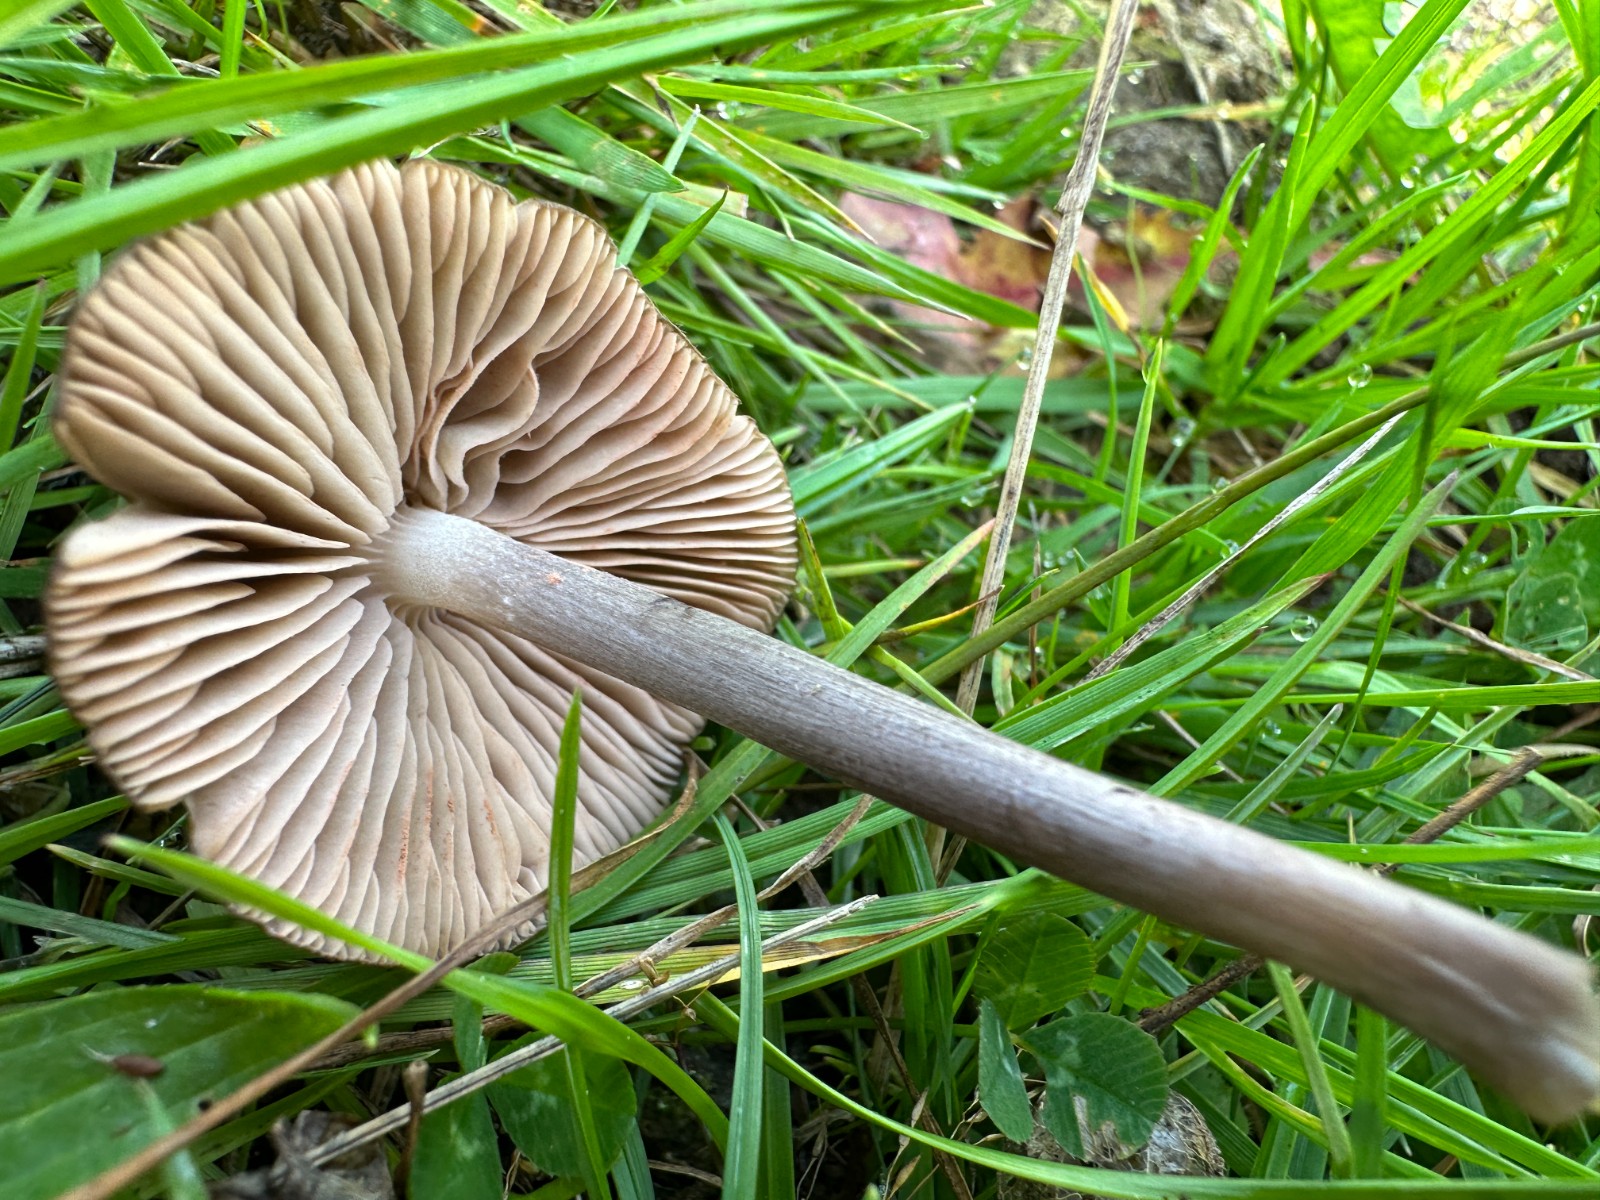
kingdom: Fungi
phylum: Basidiomycota
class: Agaricomycetes
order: Agaricales
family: Entolomataceae
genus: Entoloma
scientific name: Entoloma griseocyaneum
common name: gråblå rødblad
